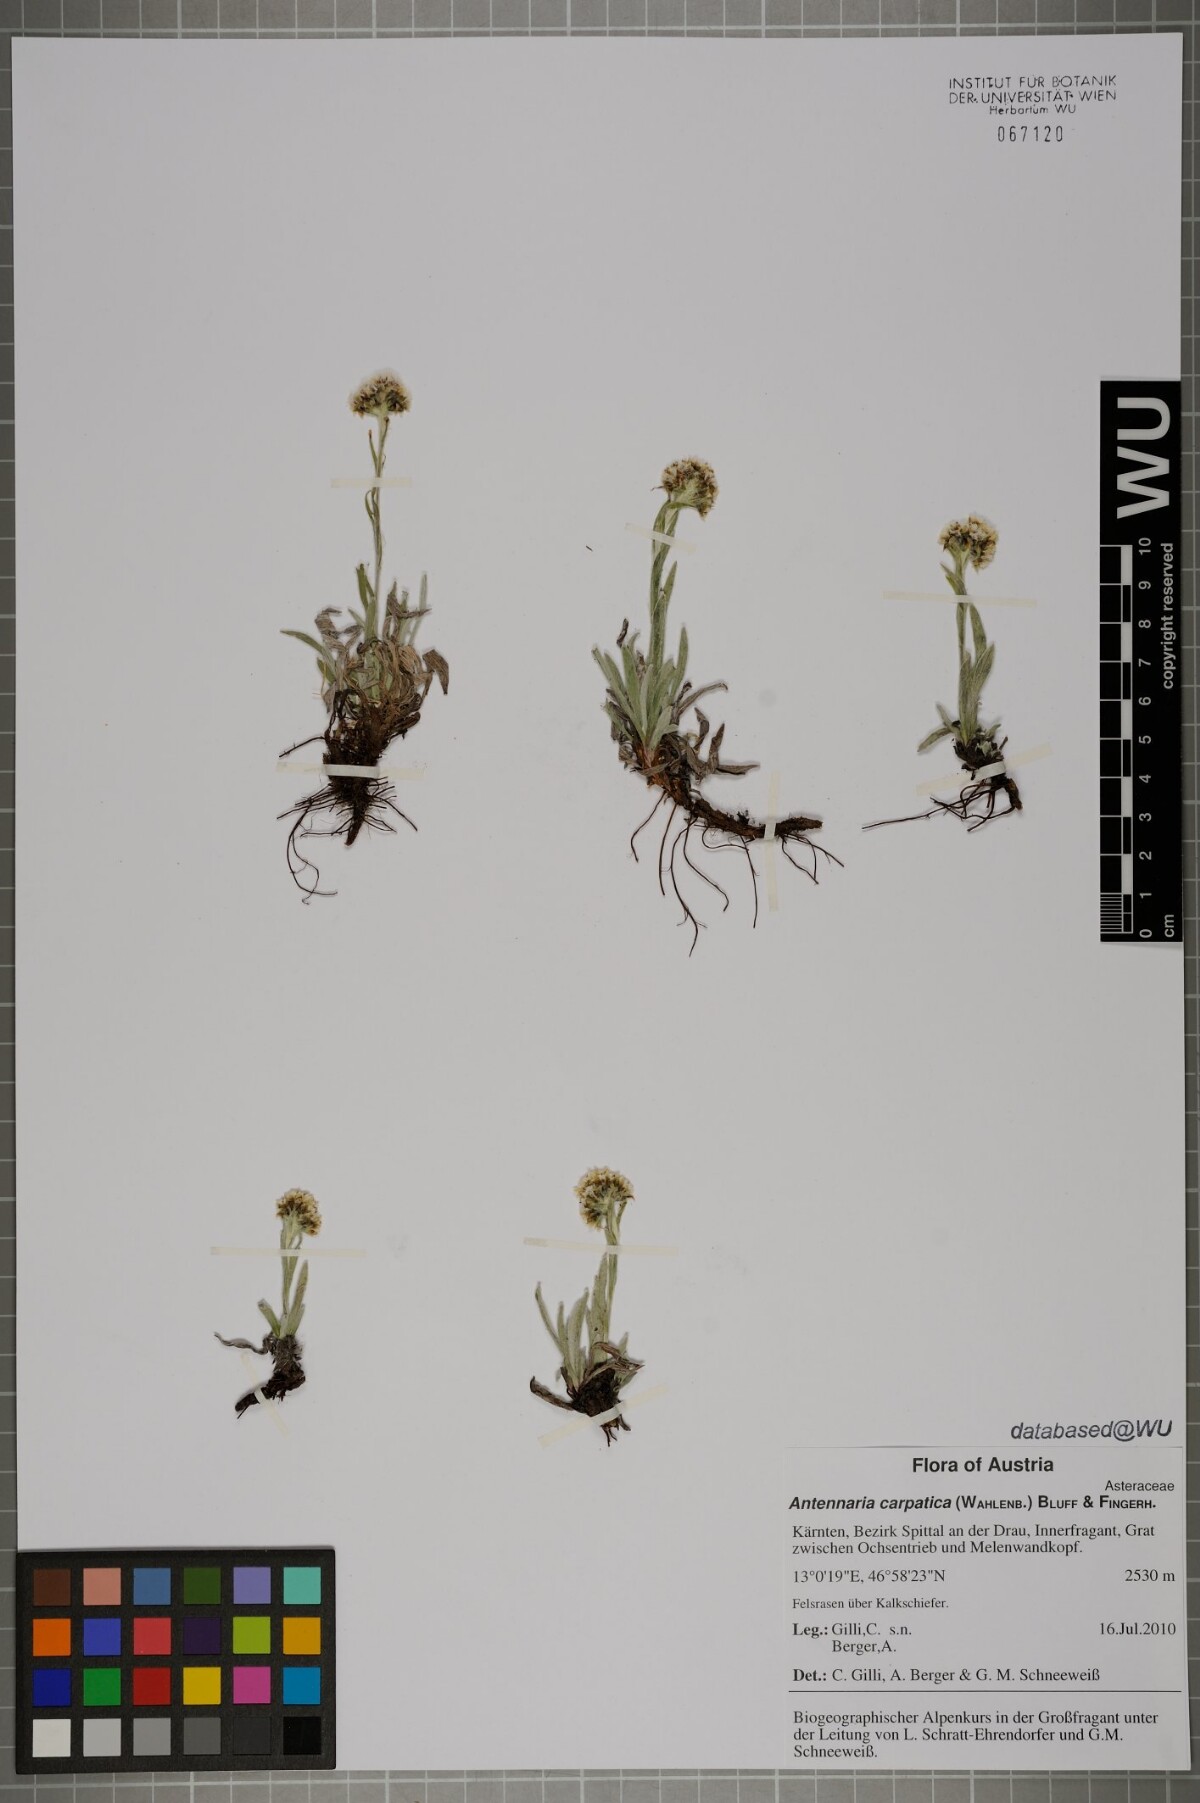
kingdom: Plantae
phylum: Tracheophyta
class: Magnoliopsida
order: Asterales
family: Asteraceae
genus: Antennaria
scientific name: Antennaria carpatica
